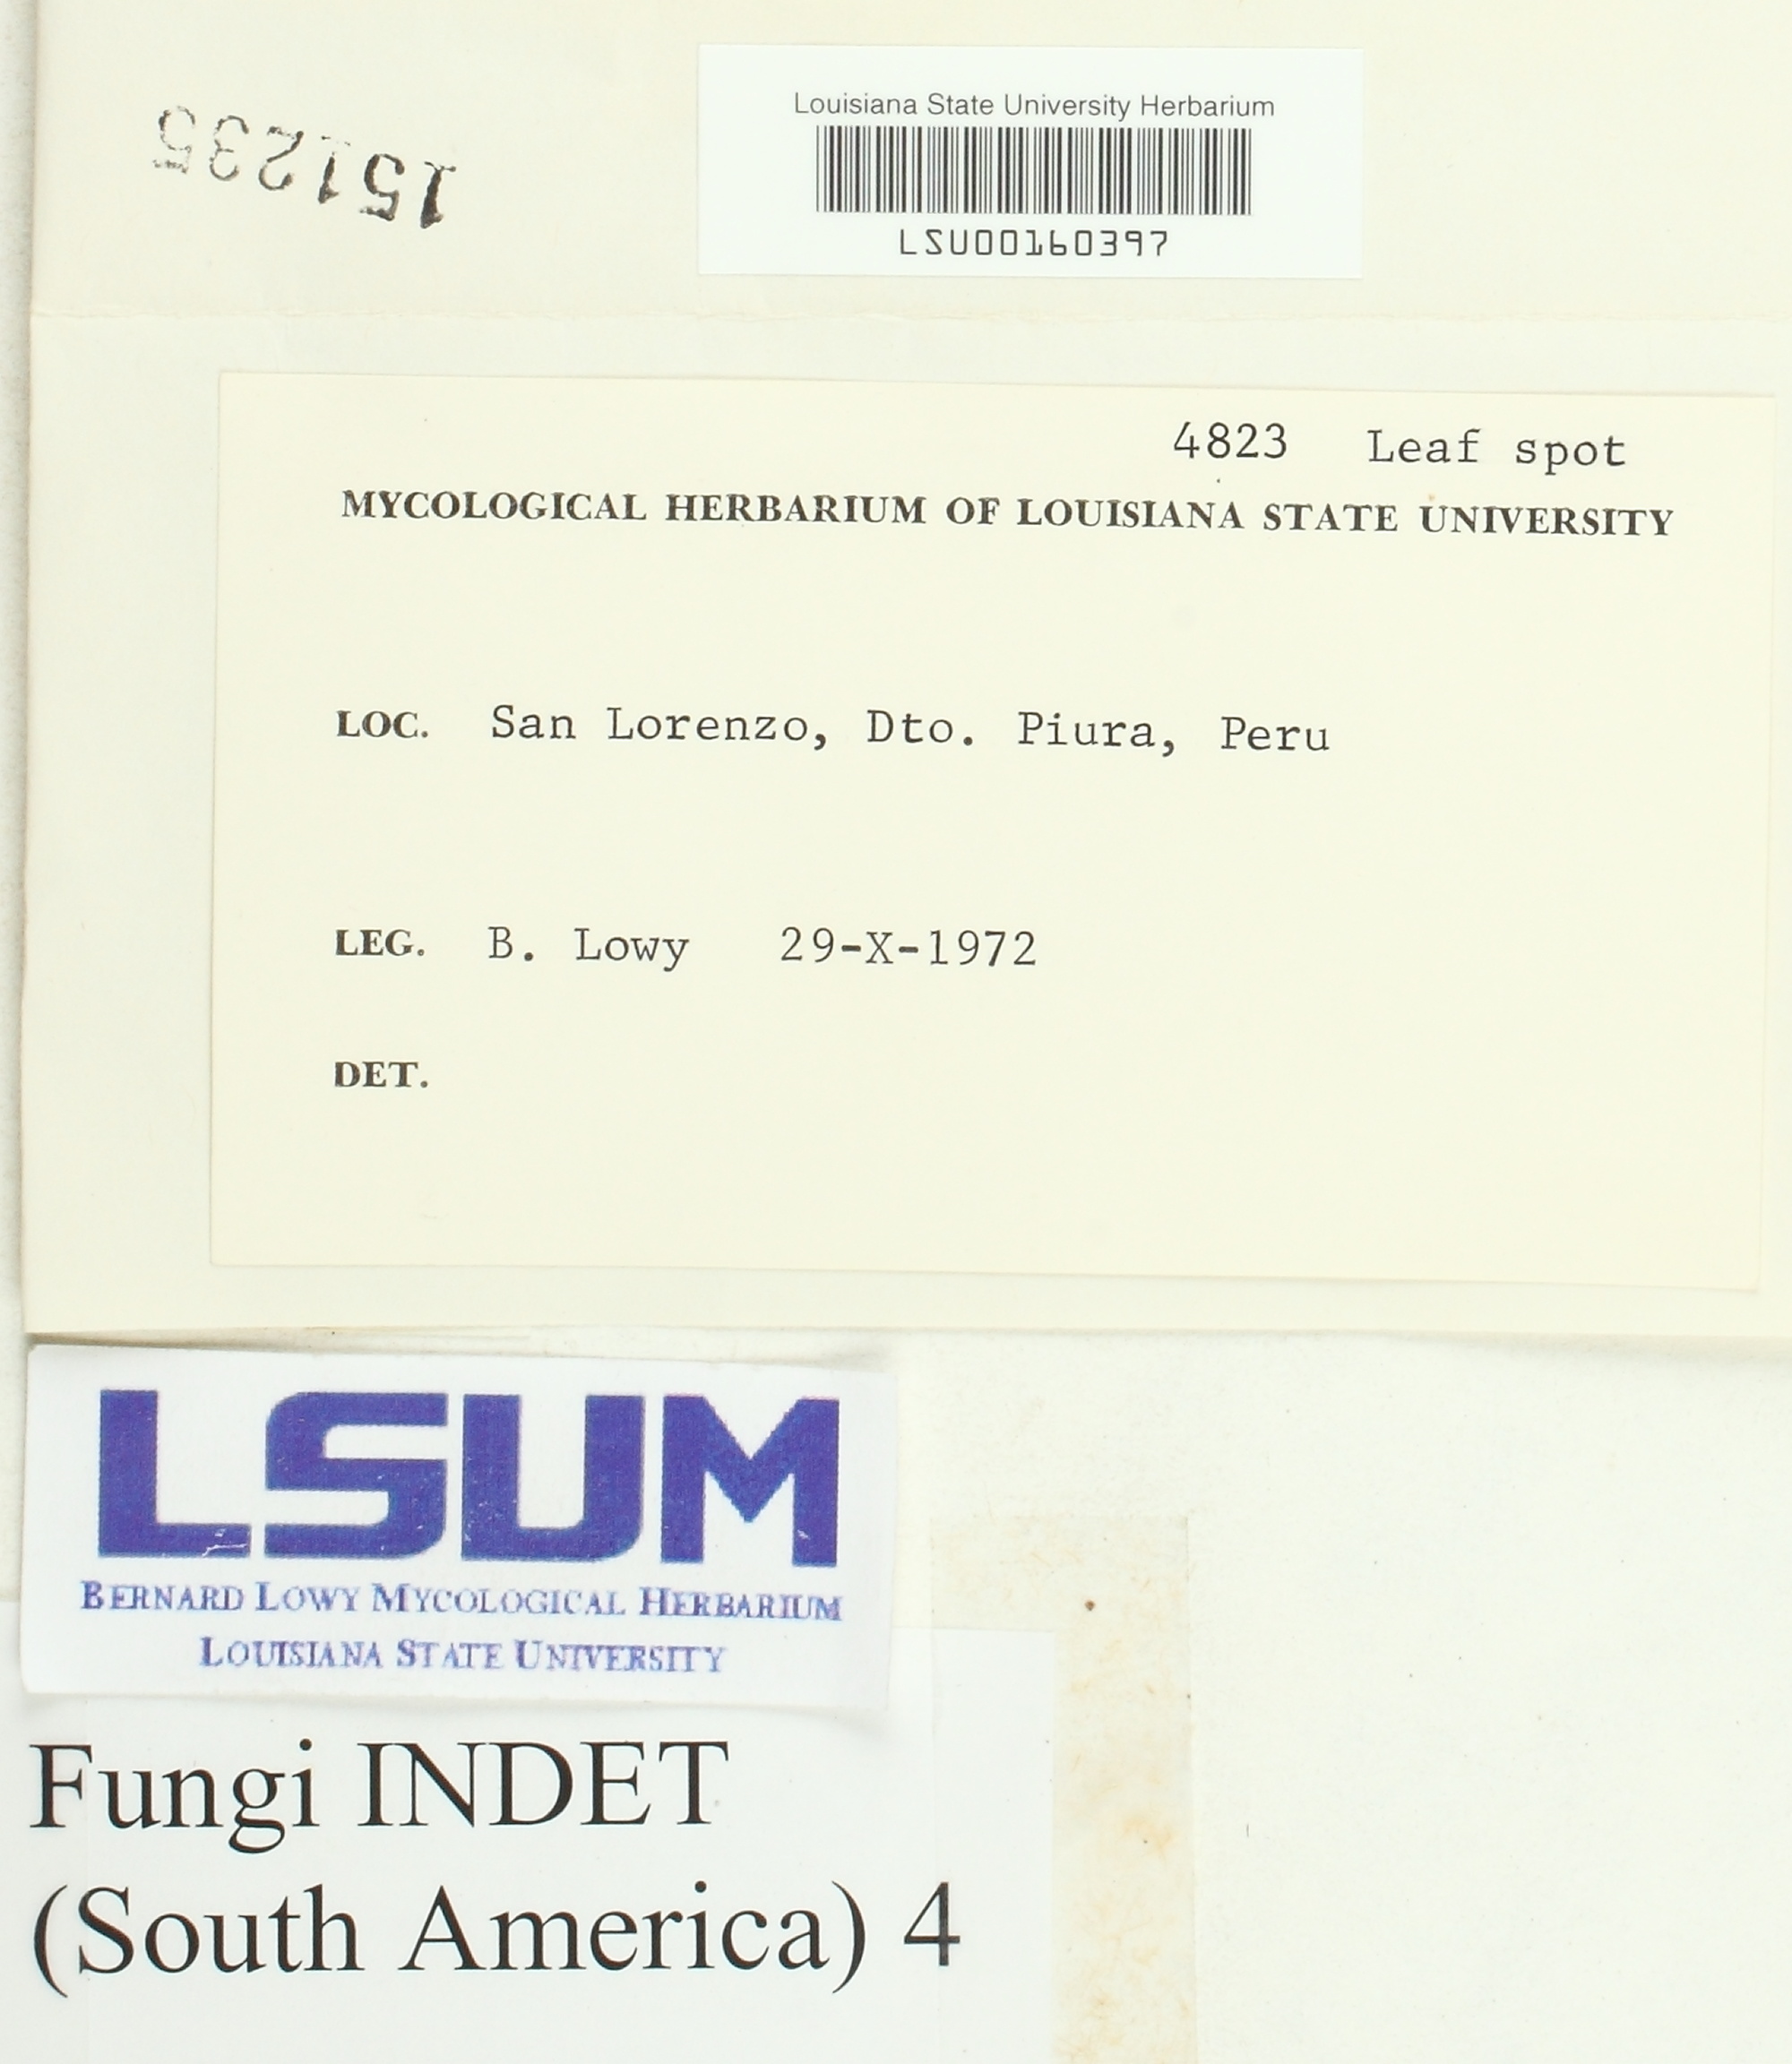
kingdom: Fungi
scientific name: Fungi
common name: Fungi
